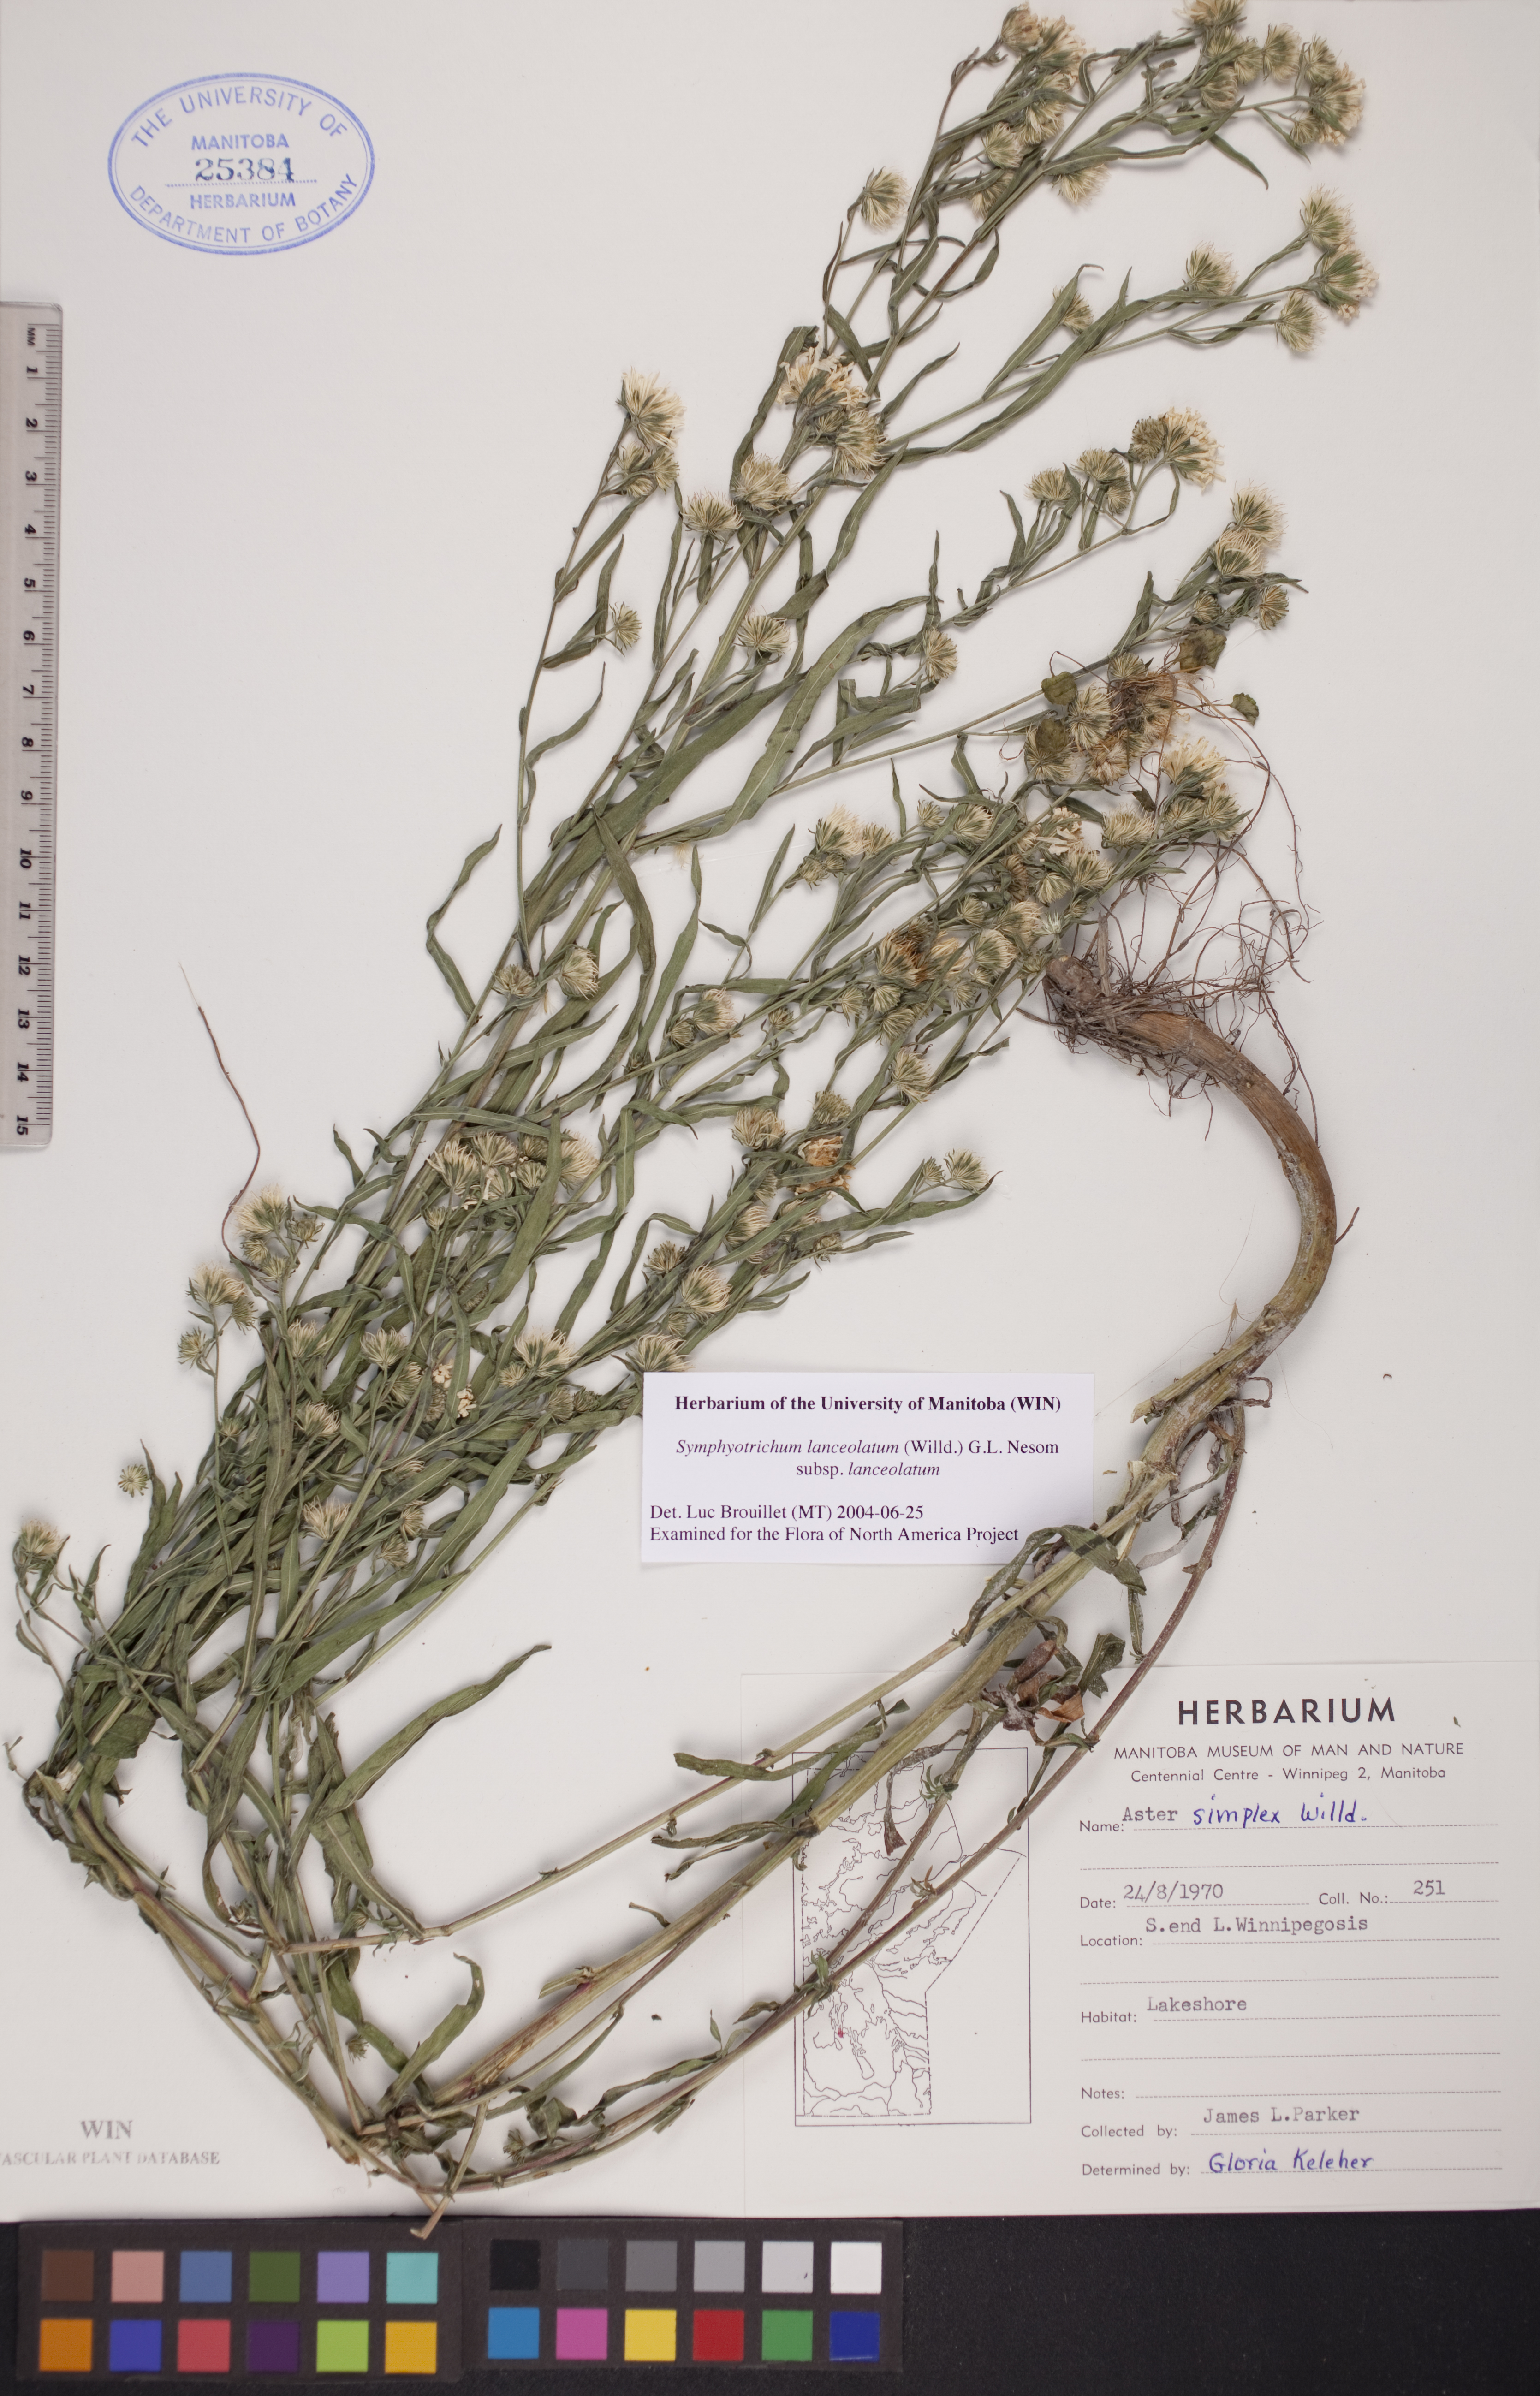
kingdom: Plantae
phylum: Tracheophyta
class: Magnoliopsida
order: Asterales
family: Asteraceae
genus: Symphyotrichum
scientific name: Symphyotrichum lanceolatum
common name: Panicled aster
